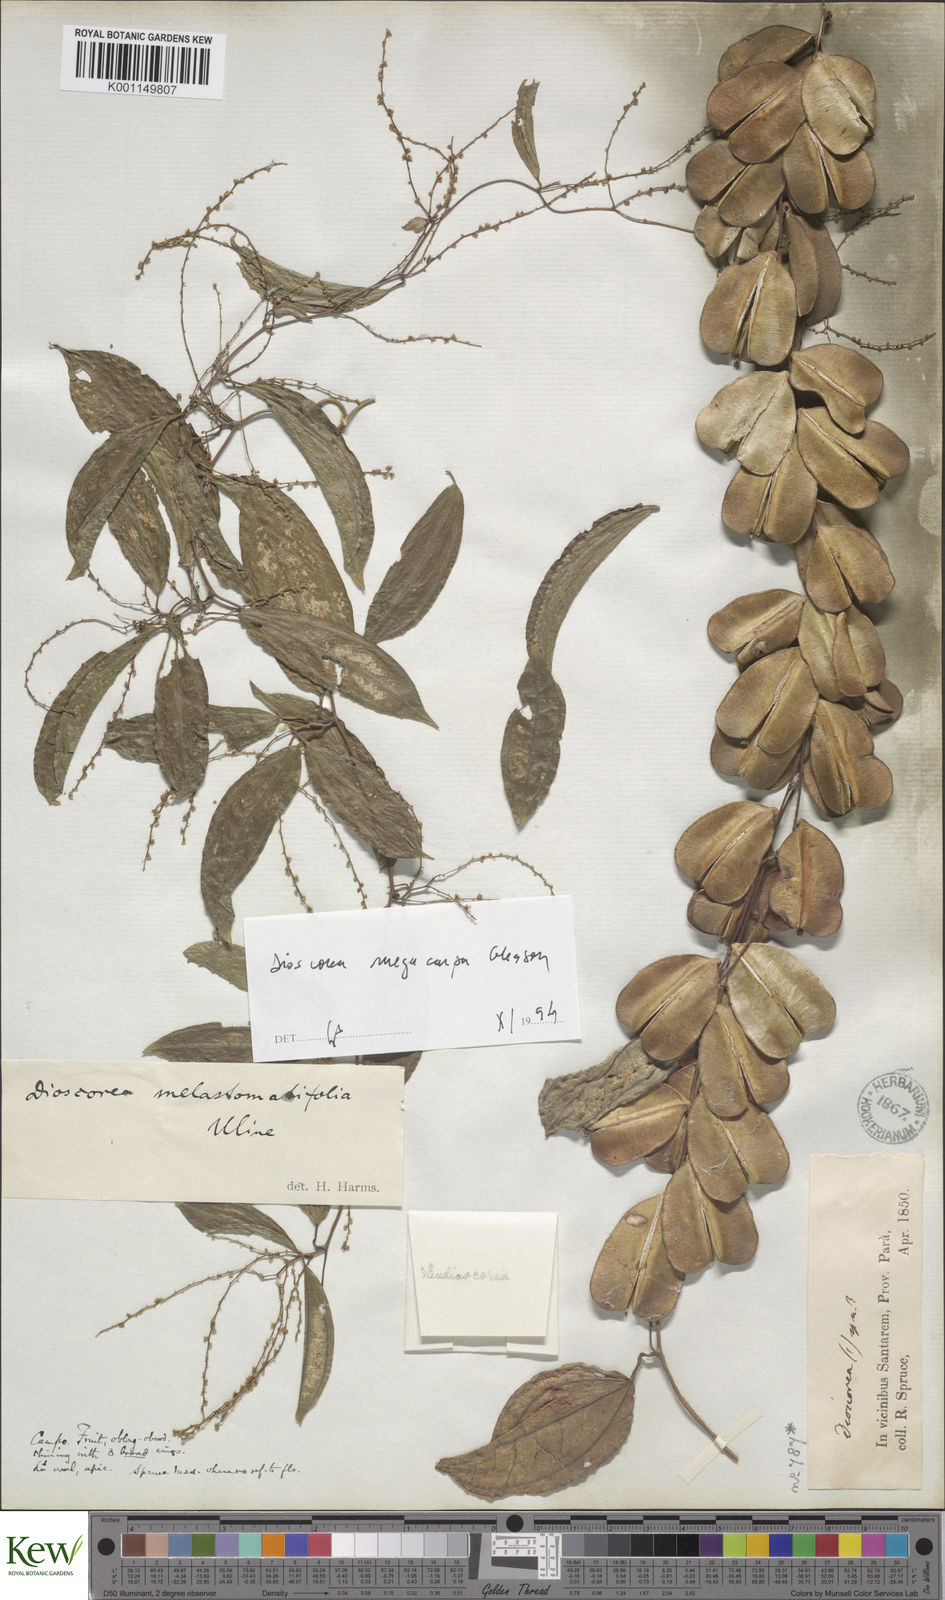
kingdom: Plantae
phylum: Tracheophyta
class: Liliopsida
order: Dioscoreales
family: Dioscoreaceae
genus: Dioscorea
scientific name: Dioscorea
